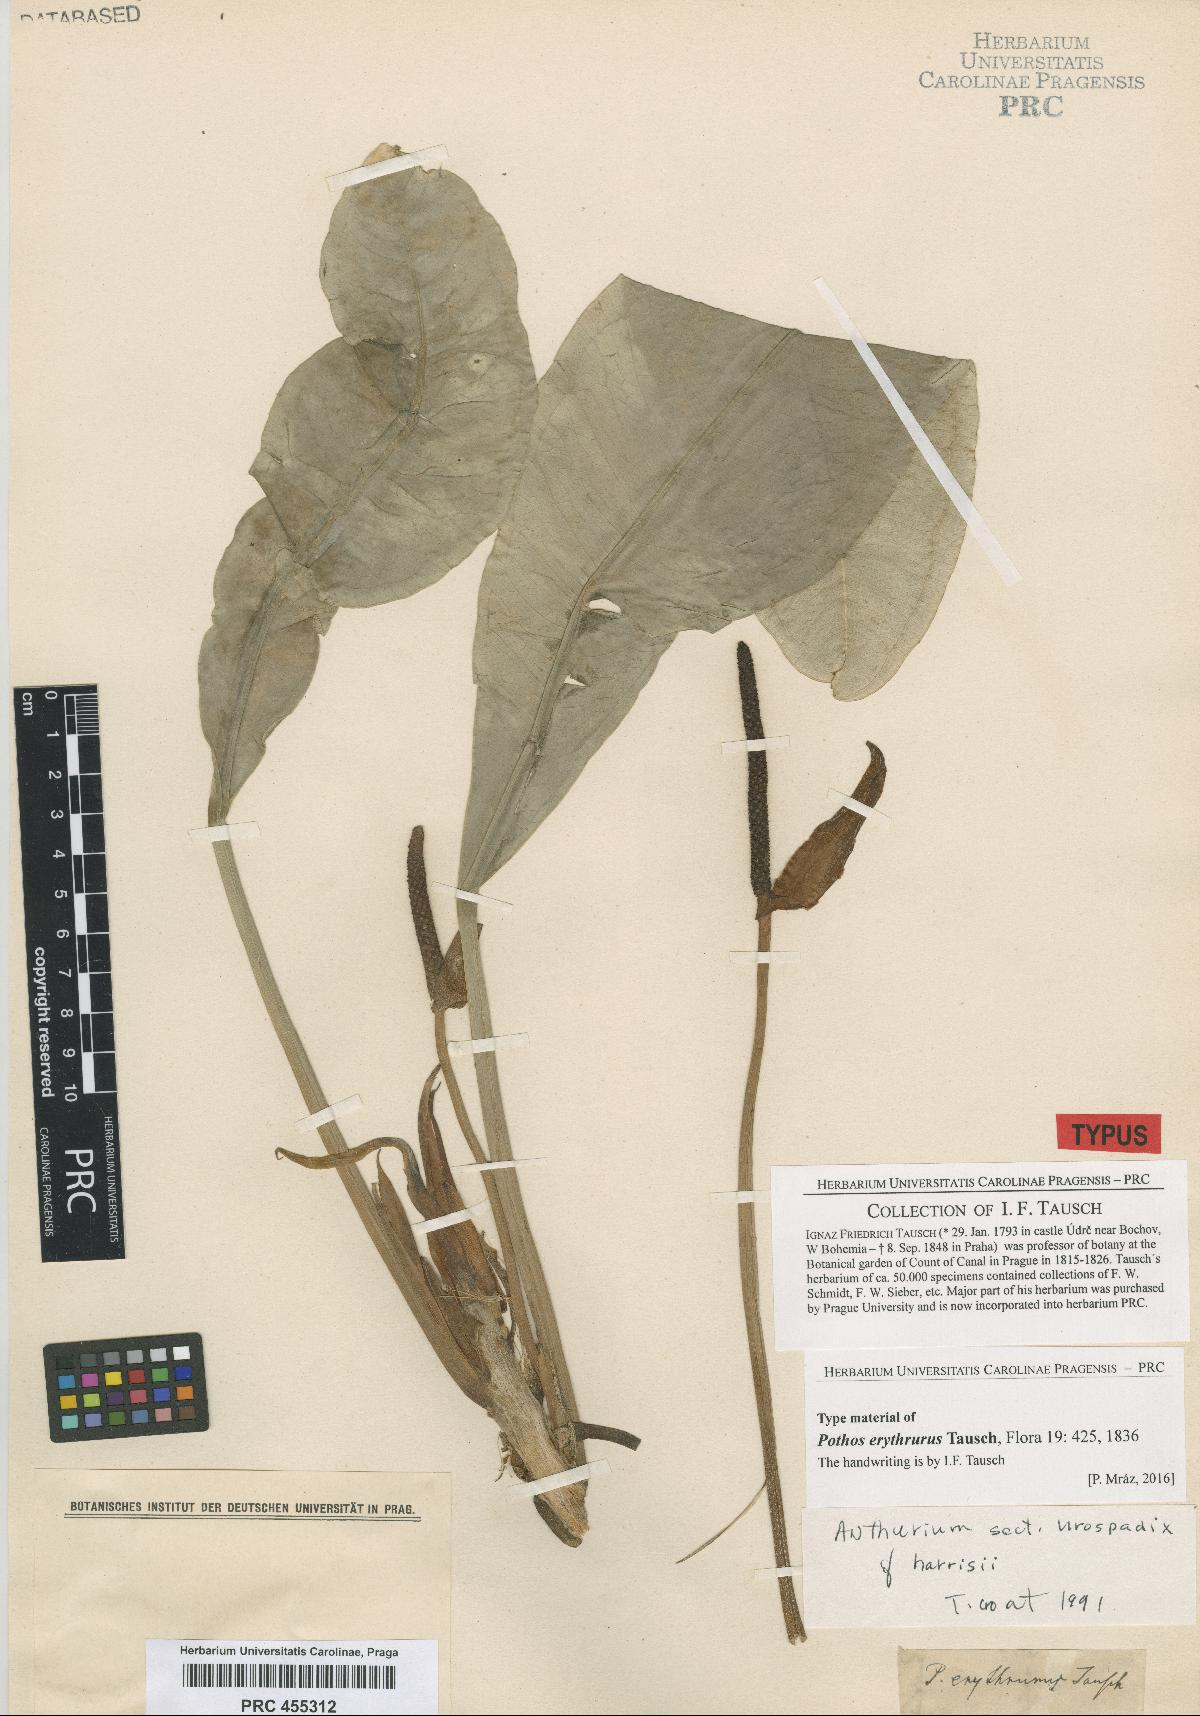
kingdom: Plantae
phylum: Tracheophyta
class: Liliopsida
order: Alismatales
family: Araceae
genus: Pothos
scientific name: Pothos erythrurus
